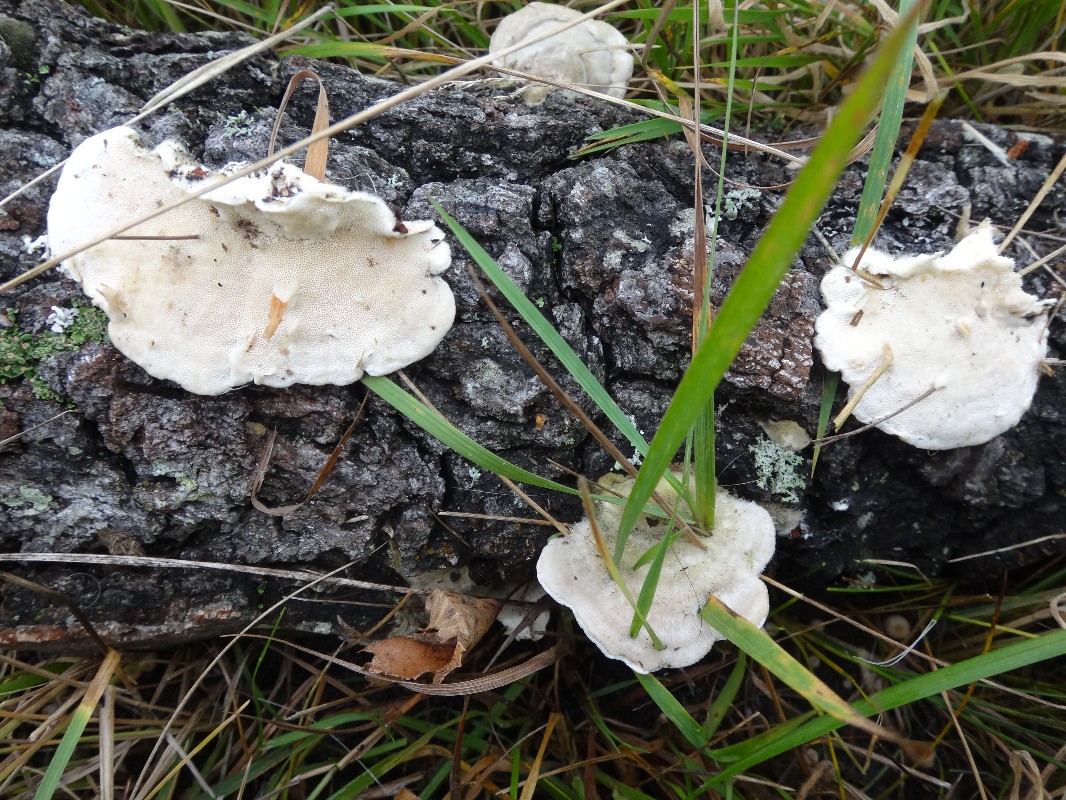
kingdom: Fungi
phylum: Basidiomycota
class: Agaricomycetes
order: Polyporales
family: Polyporaceae
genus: Trametes
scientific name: Trametes hirsuta
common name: håret læderporesvamp
